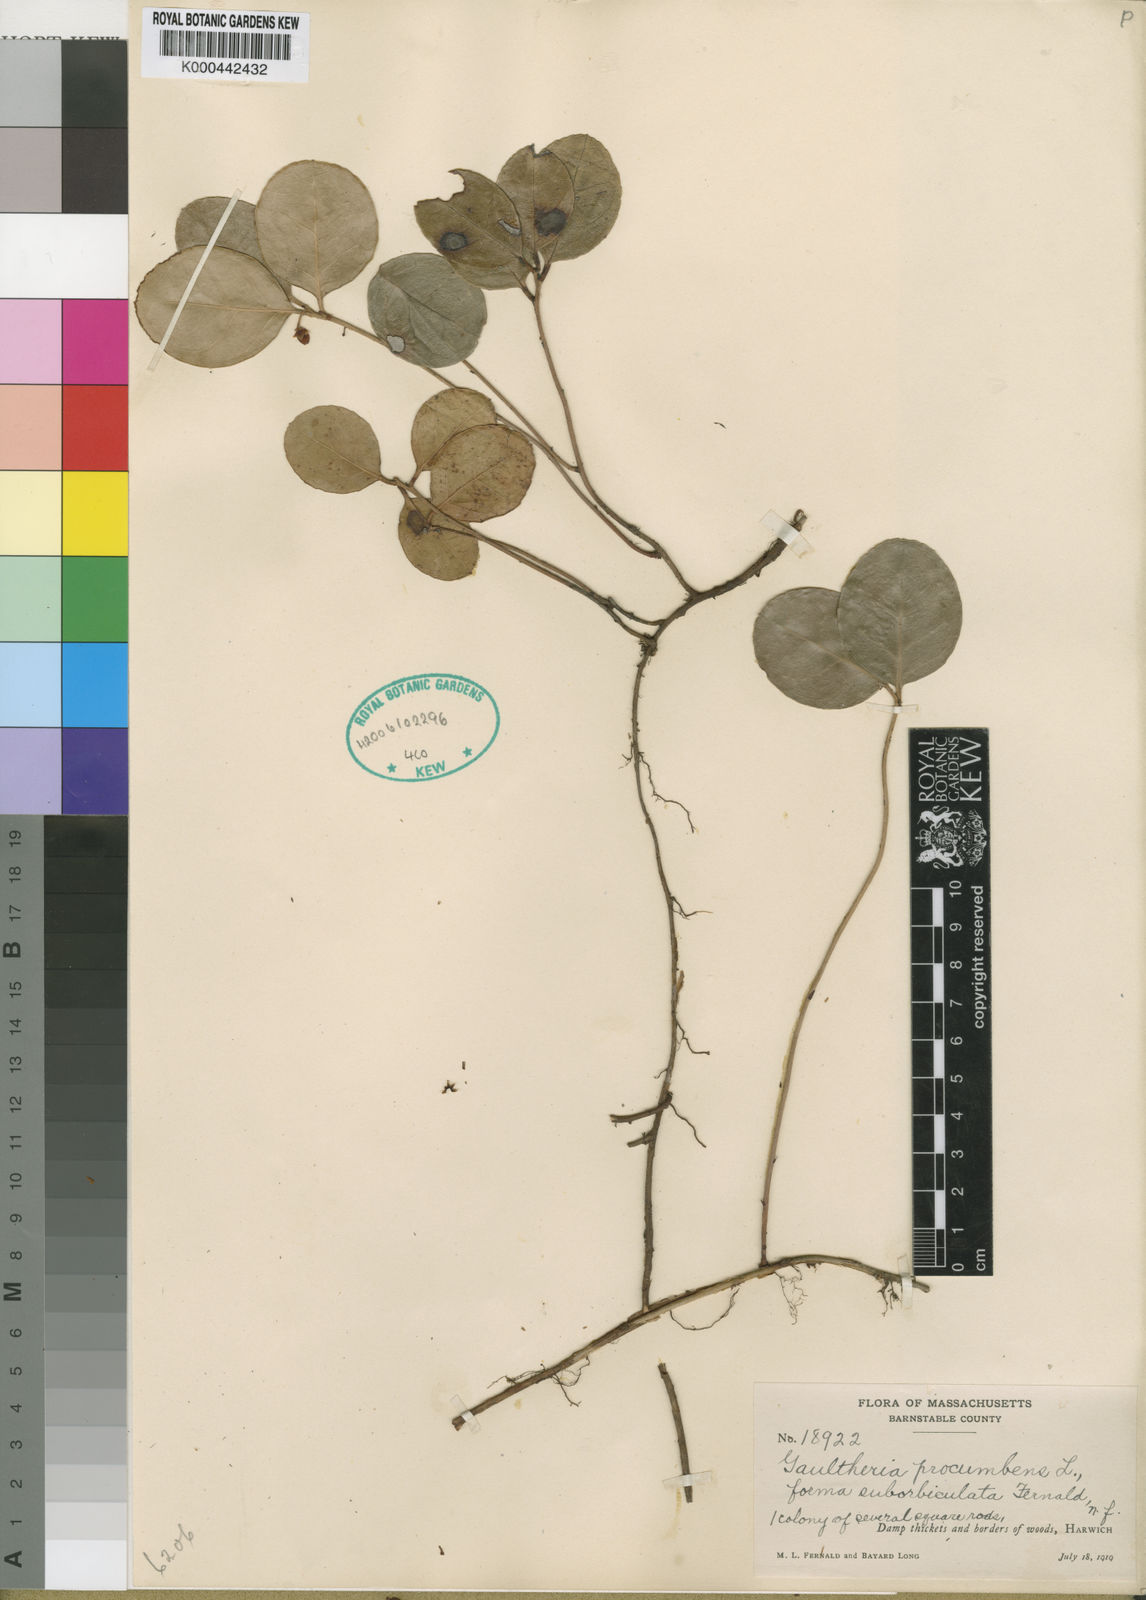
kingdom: Plantae
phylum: Tracheophyta
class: Magnoliopsida
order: Ericales
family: Ericaceae
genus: Gaultheria
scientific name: Gaultheria procumbens
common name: Checkerberry
